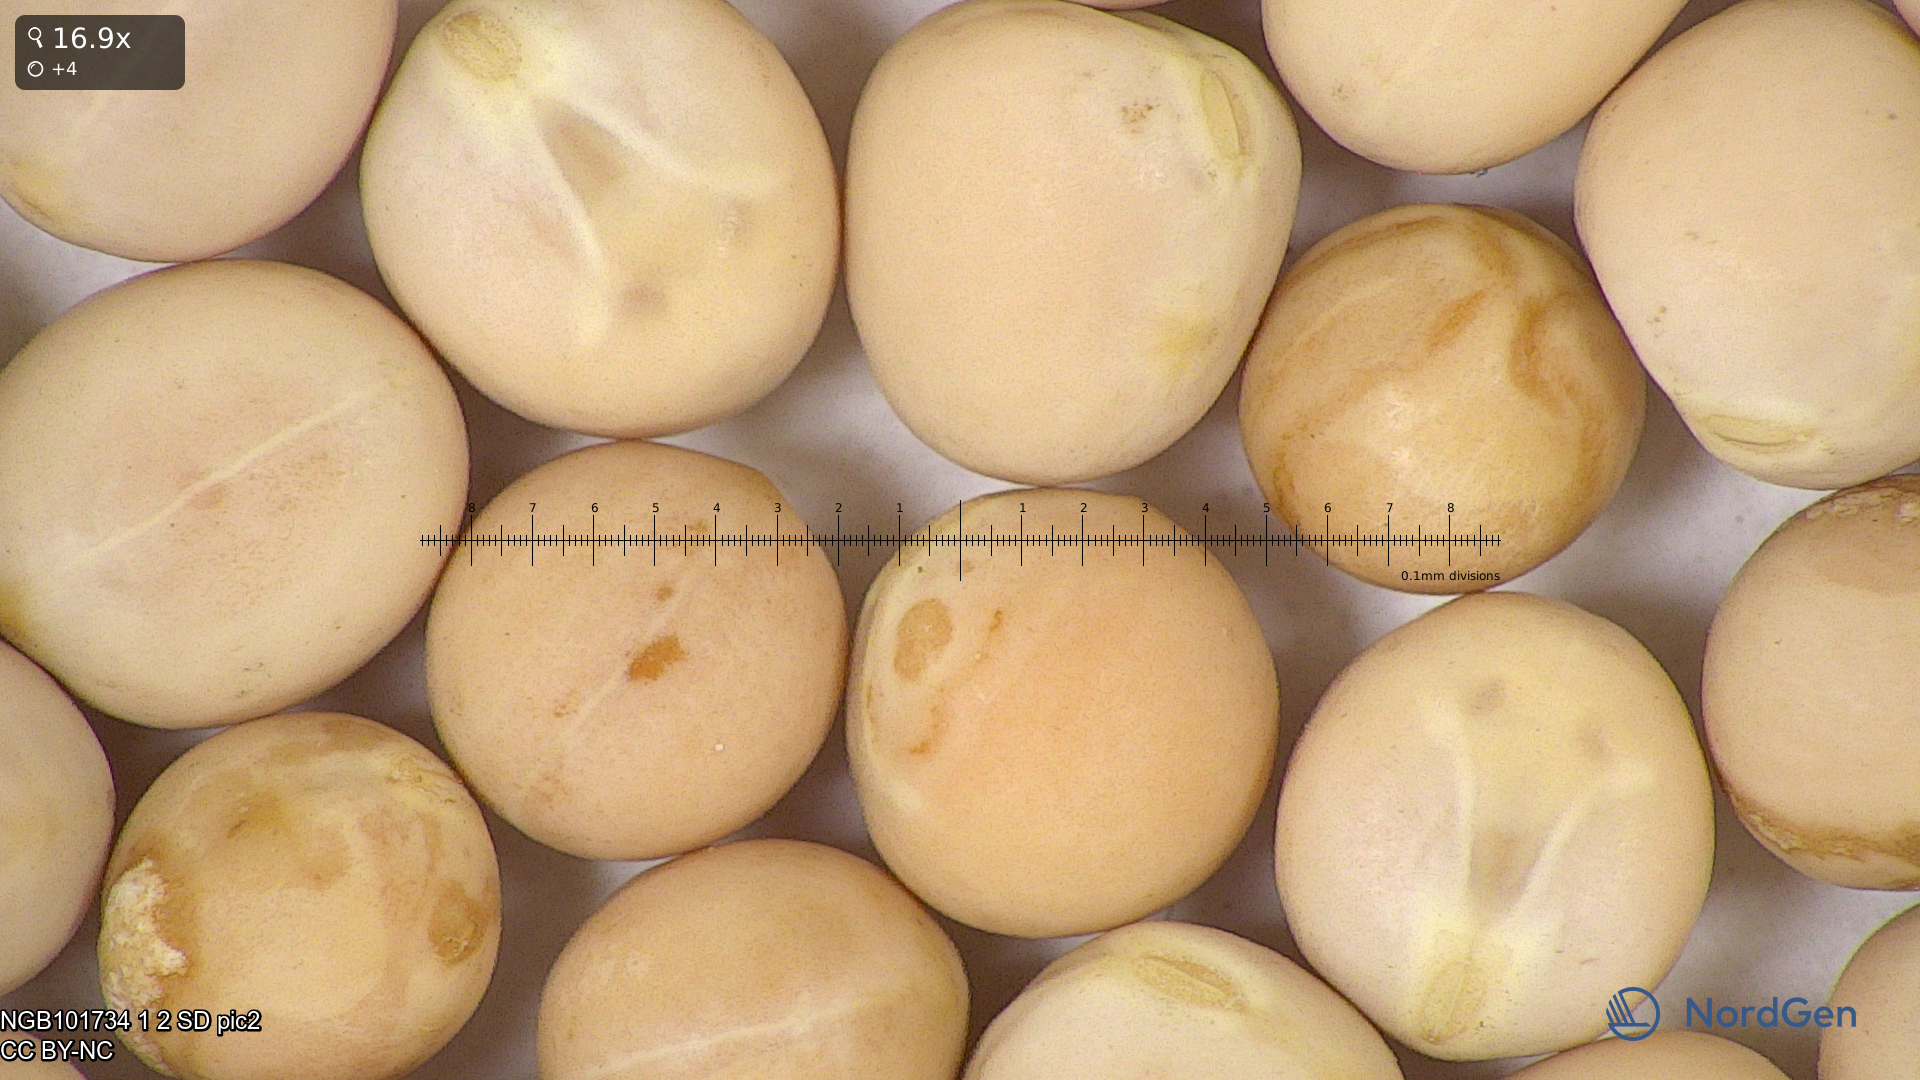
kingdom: Plantae
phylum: Tracheophyta
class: Magnoliopsida
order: Fabales
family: Fabaceae
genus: Lathyrus
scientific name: Lathyrus oleraceus
